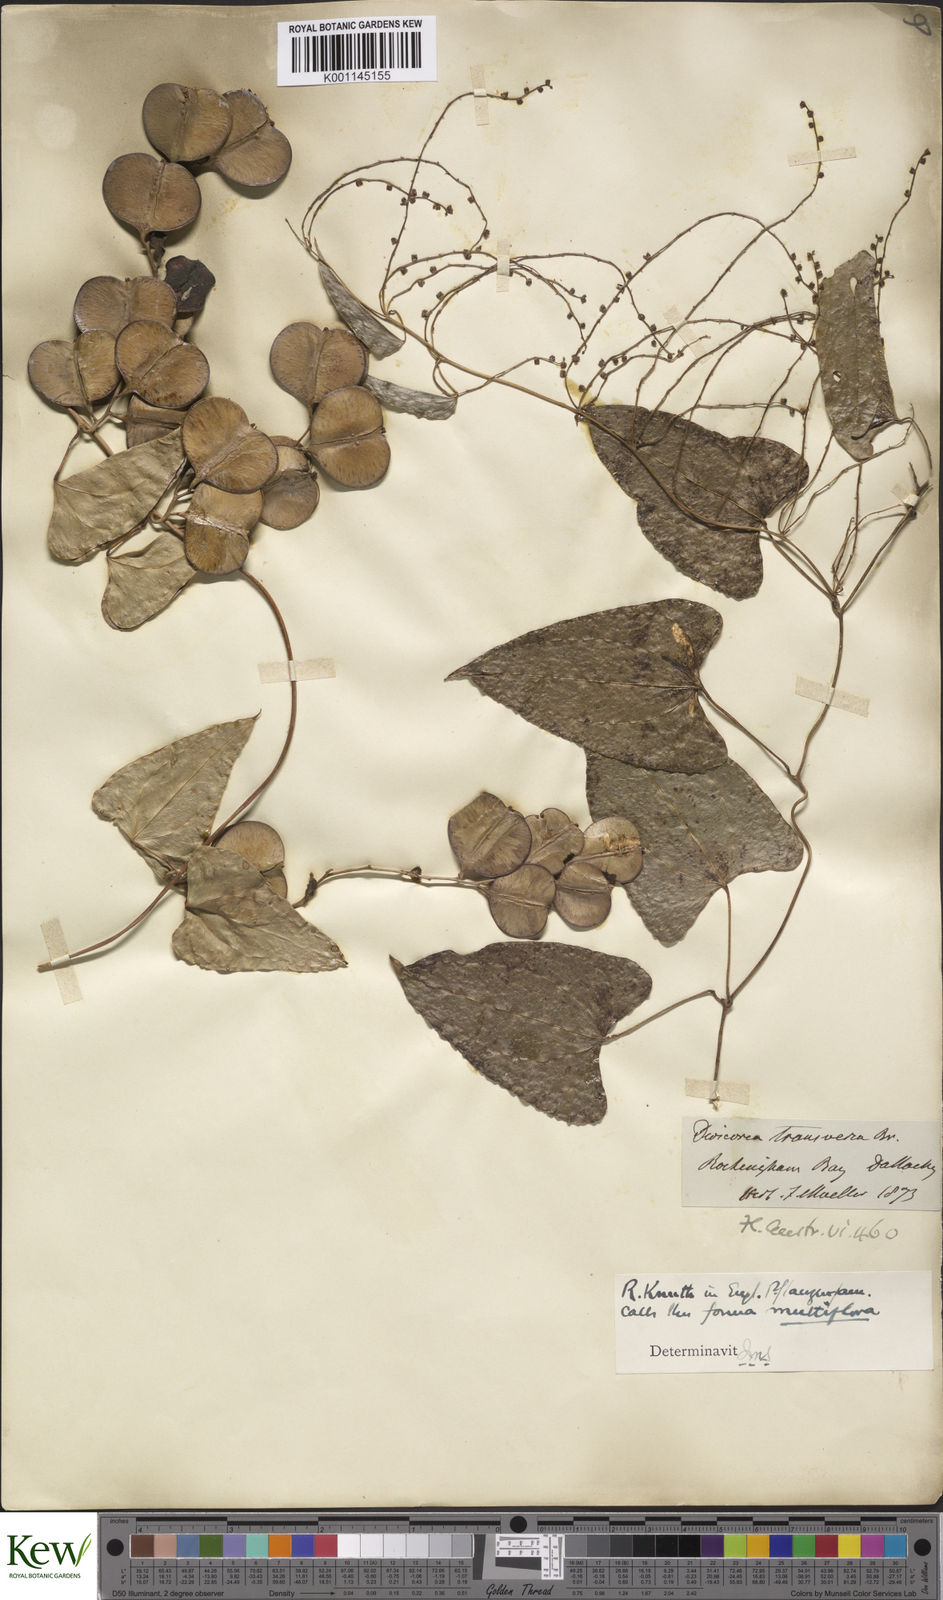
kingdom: Plantae
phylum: Tracheophyta
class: Liliopsida
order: Dioscoreales
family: Dioscoreaceae
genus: Dioscorea
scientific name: Dioscorea transversa
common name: Long yam
